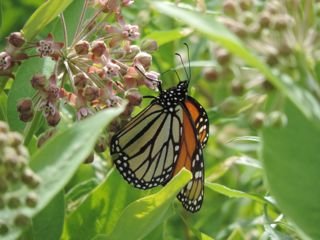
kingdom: Animalia
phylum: Arthropoda
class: Insecta
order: Lepidoptera
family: Nymphalidae
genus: Danaus
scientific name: Danaus plexippus
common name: Monarch
